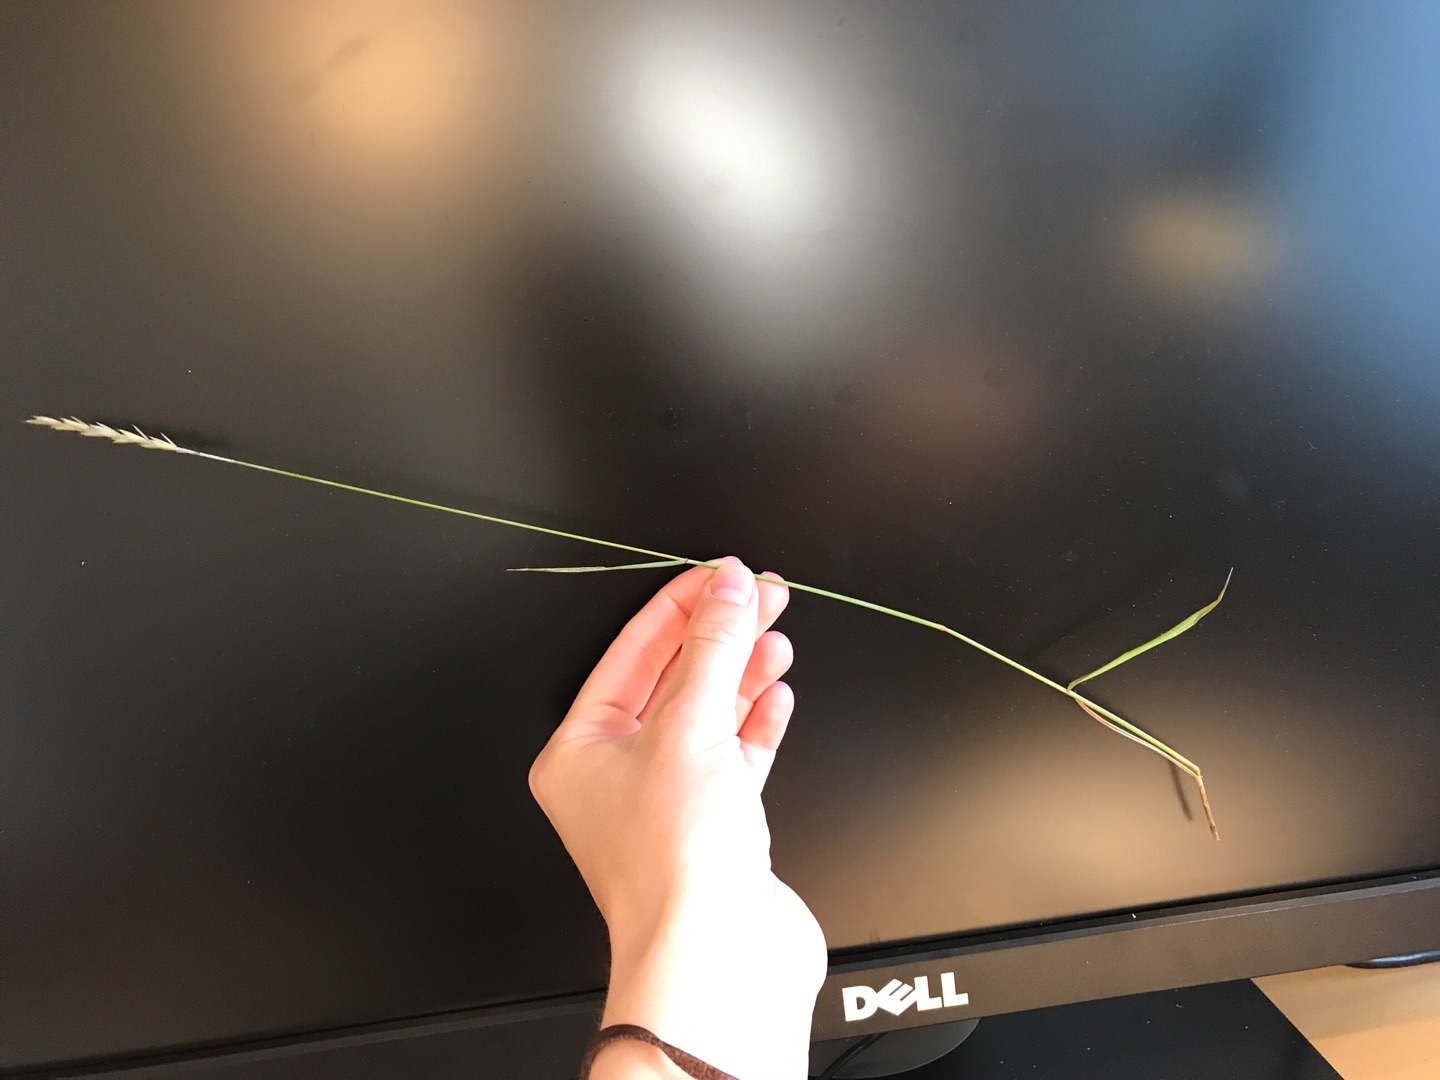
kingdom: Plantae
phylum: Tracheophyta
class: Liliopsida
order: Poales
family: Poaceae
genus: Elymus
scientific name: Elymus repens
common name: Almindelig kvik
